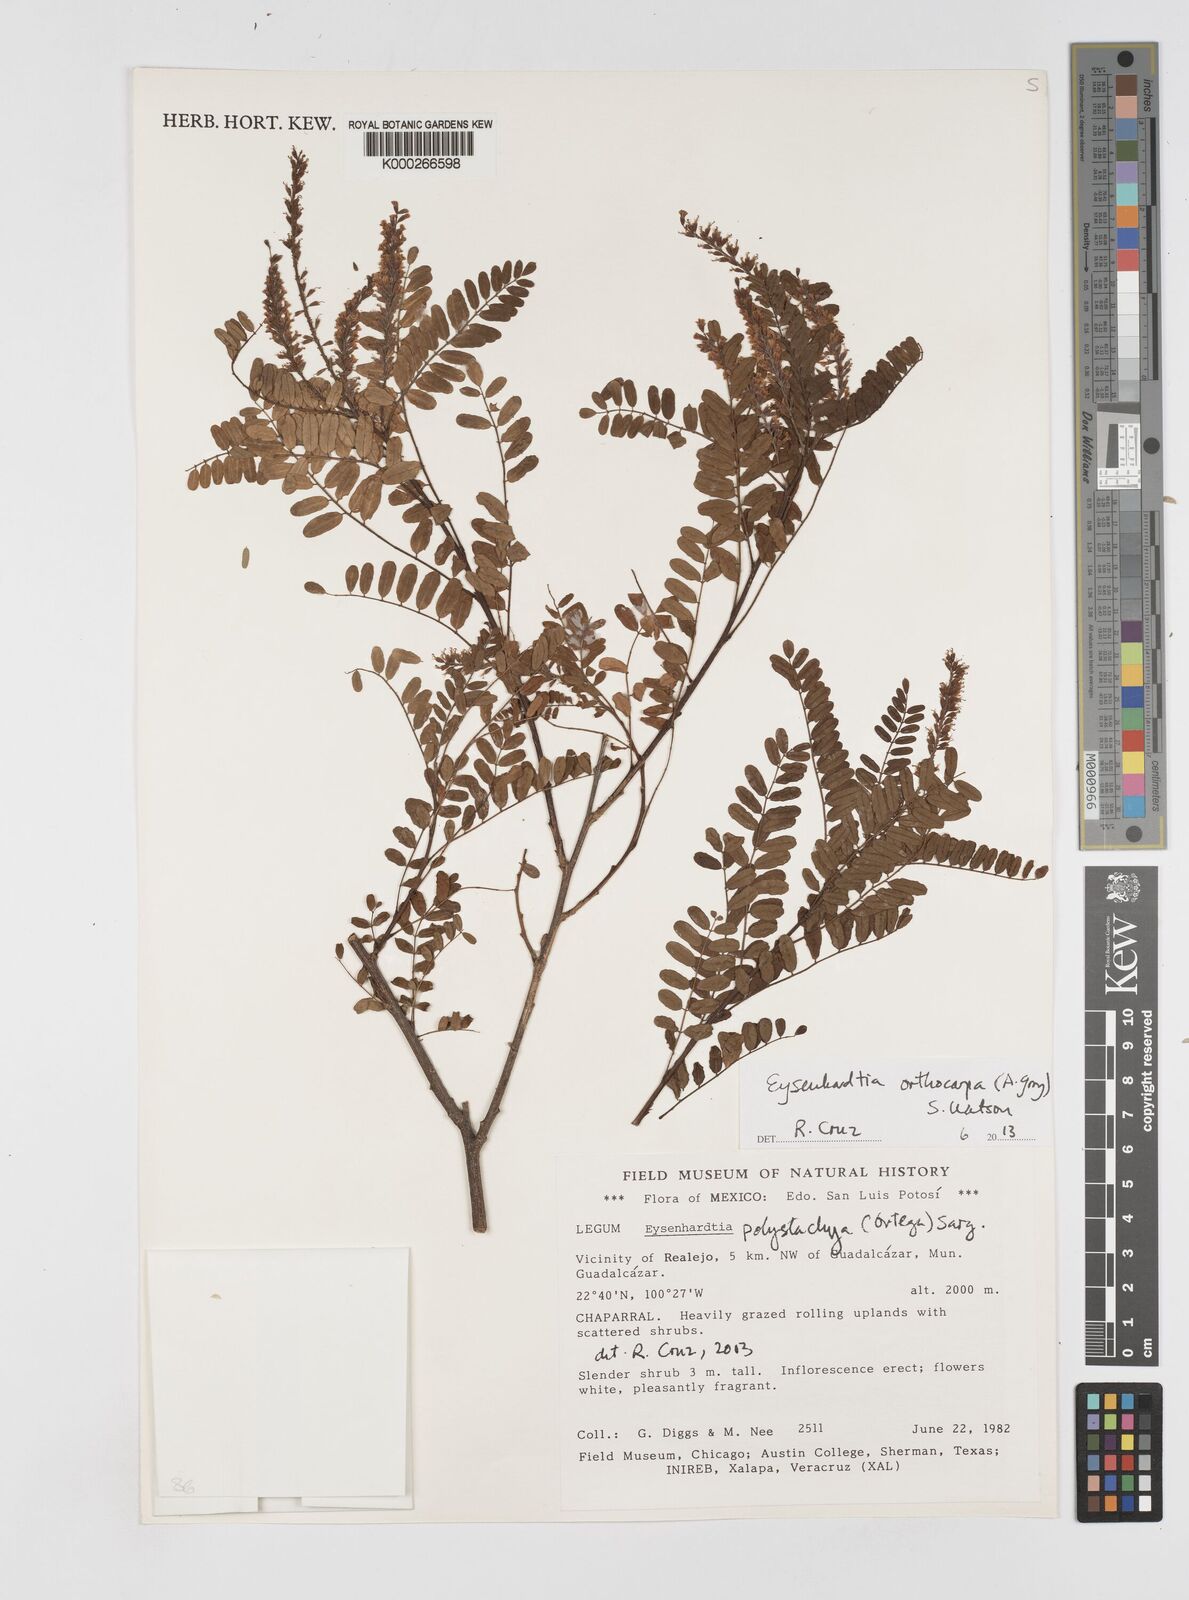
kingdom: Plantae
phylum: Tracheophyta
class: Magnoliopsida
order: Fabales
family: Fabaceae
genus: Eysenhardtia
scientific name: Eysenhardtia orthocarpa
